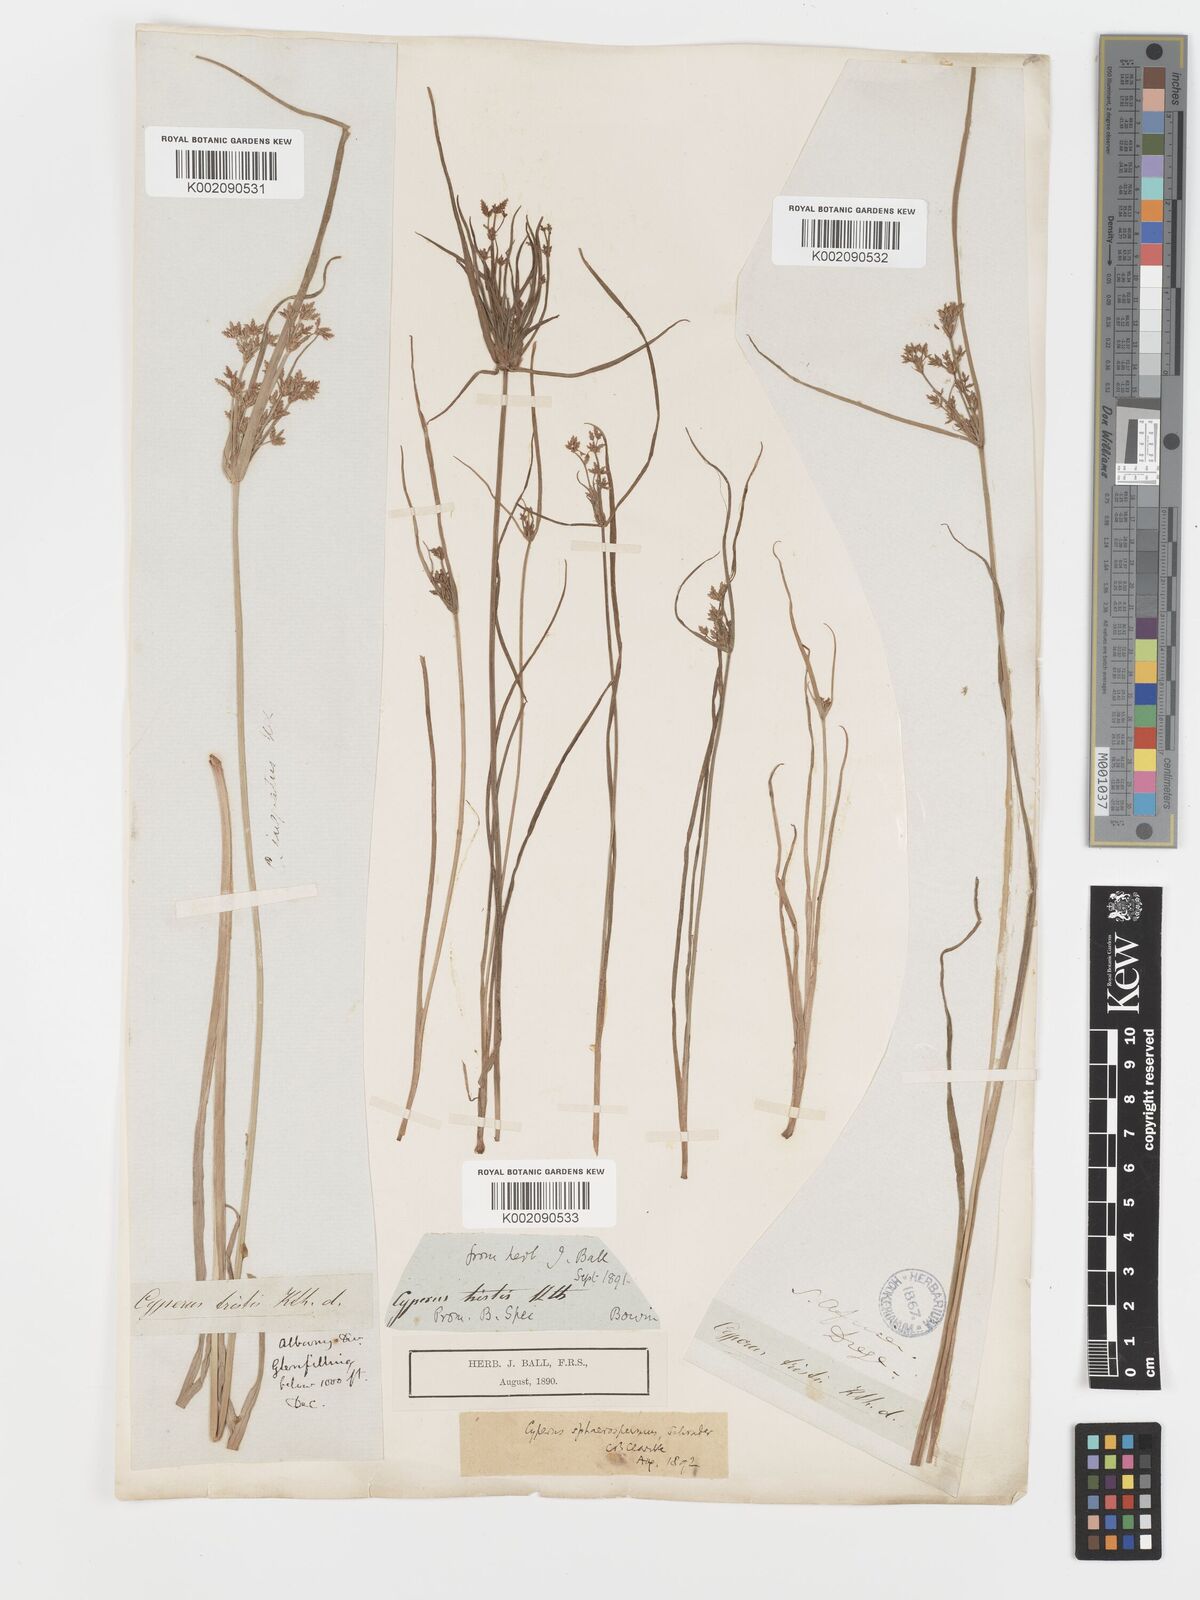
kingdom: Plantae
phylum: Tracheophyta
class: Liliopsida
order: Poales
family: Cyperaceae
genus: Cyperus
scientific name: Cyperus sphaerospermus
